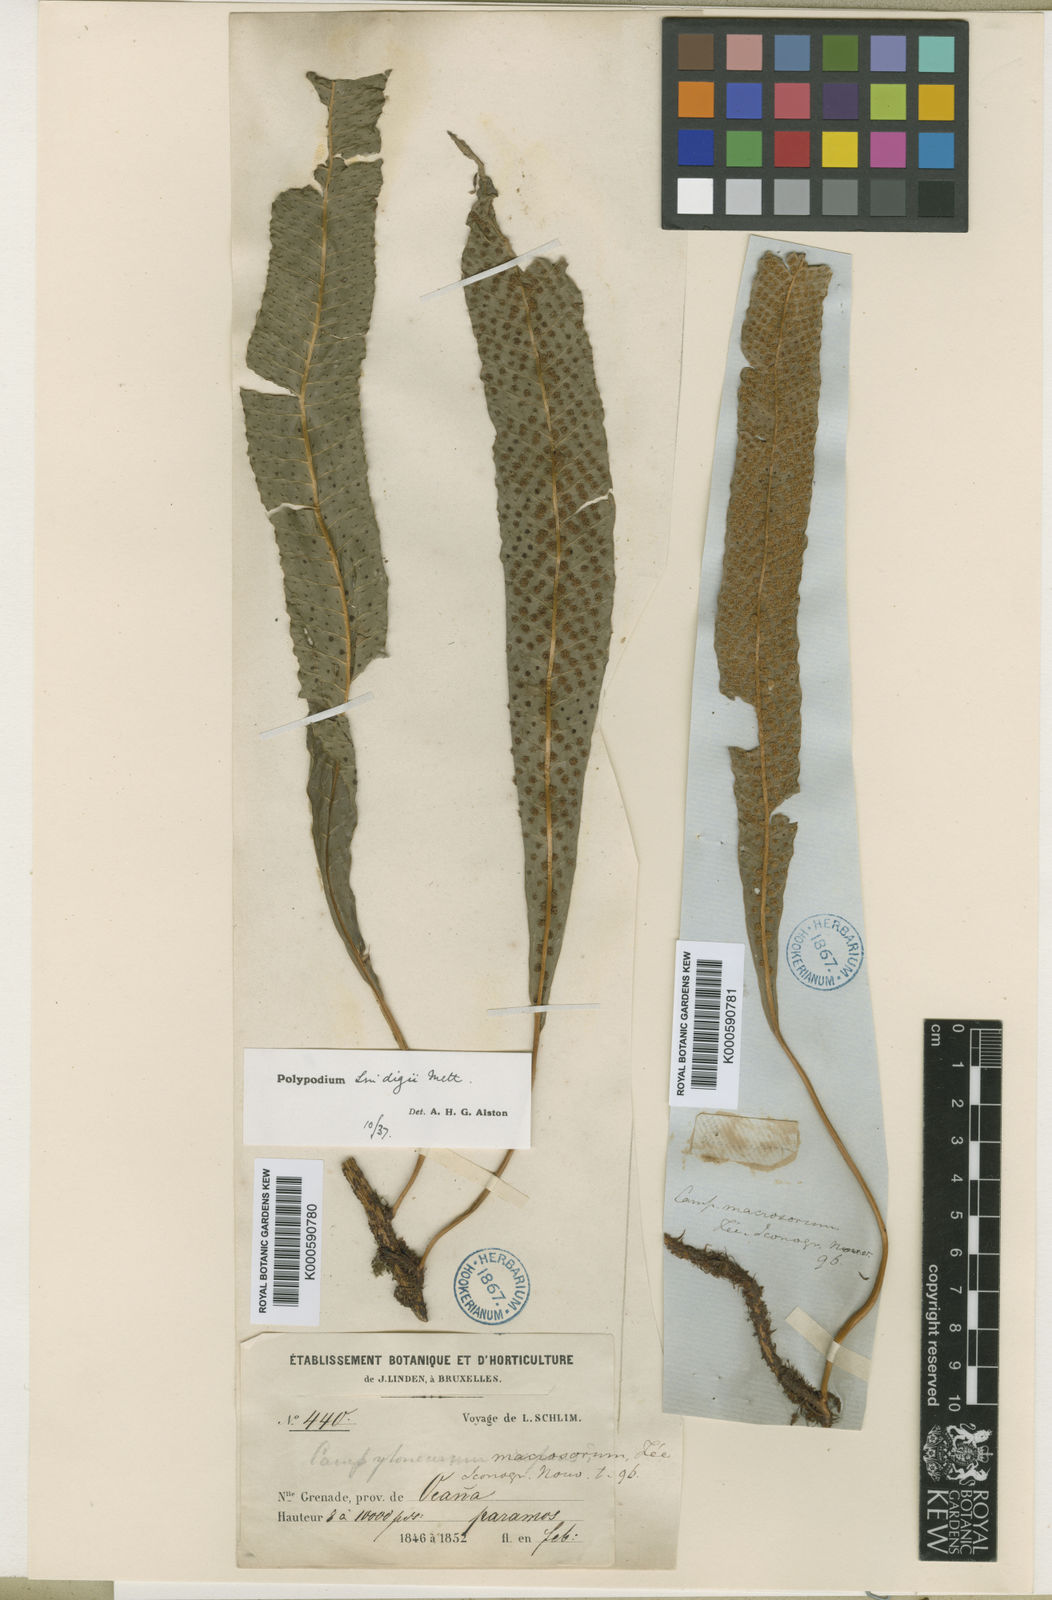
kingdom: Plantae
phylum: Tracheophyta
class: Polypodiopsida
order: Polypodiales
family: Polypodiaceae
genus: Campyloneurum
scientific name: Campyloneurum
